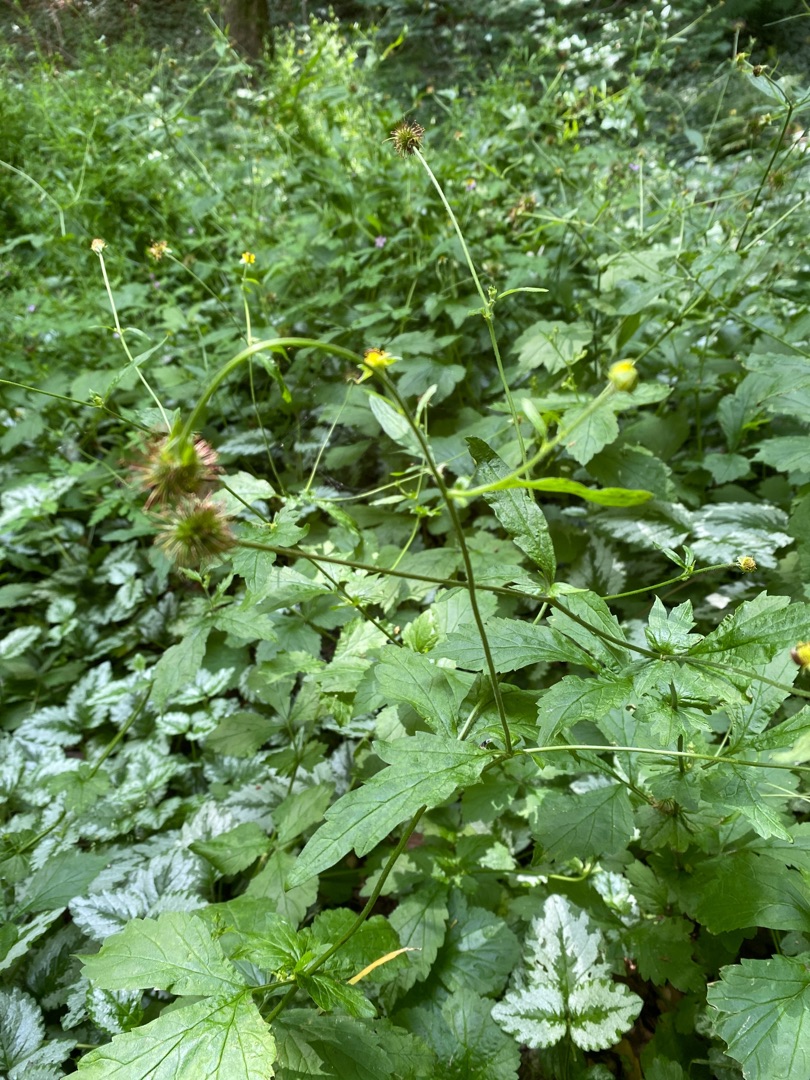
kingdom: Plantae
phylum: Tracheophyta
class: Magnoliopsida
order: Rosales
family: Rosaceae
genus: Geum
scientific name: Geum urbanum
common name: Feber-nellikerod
